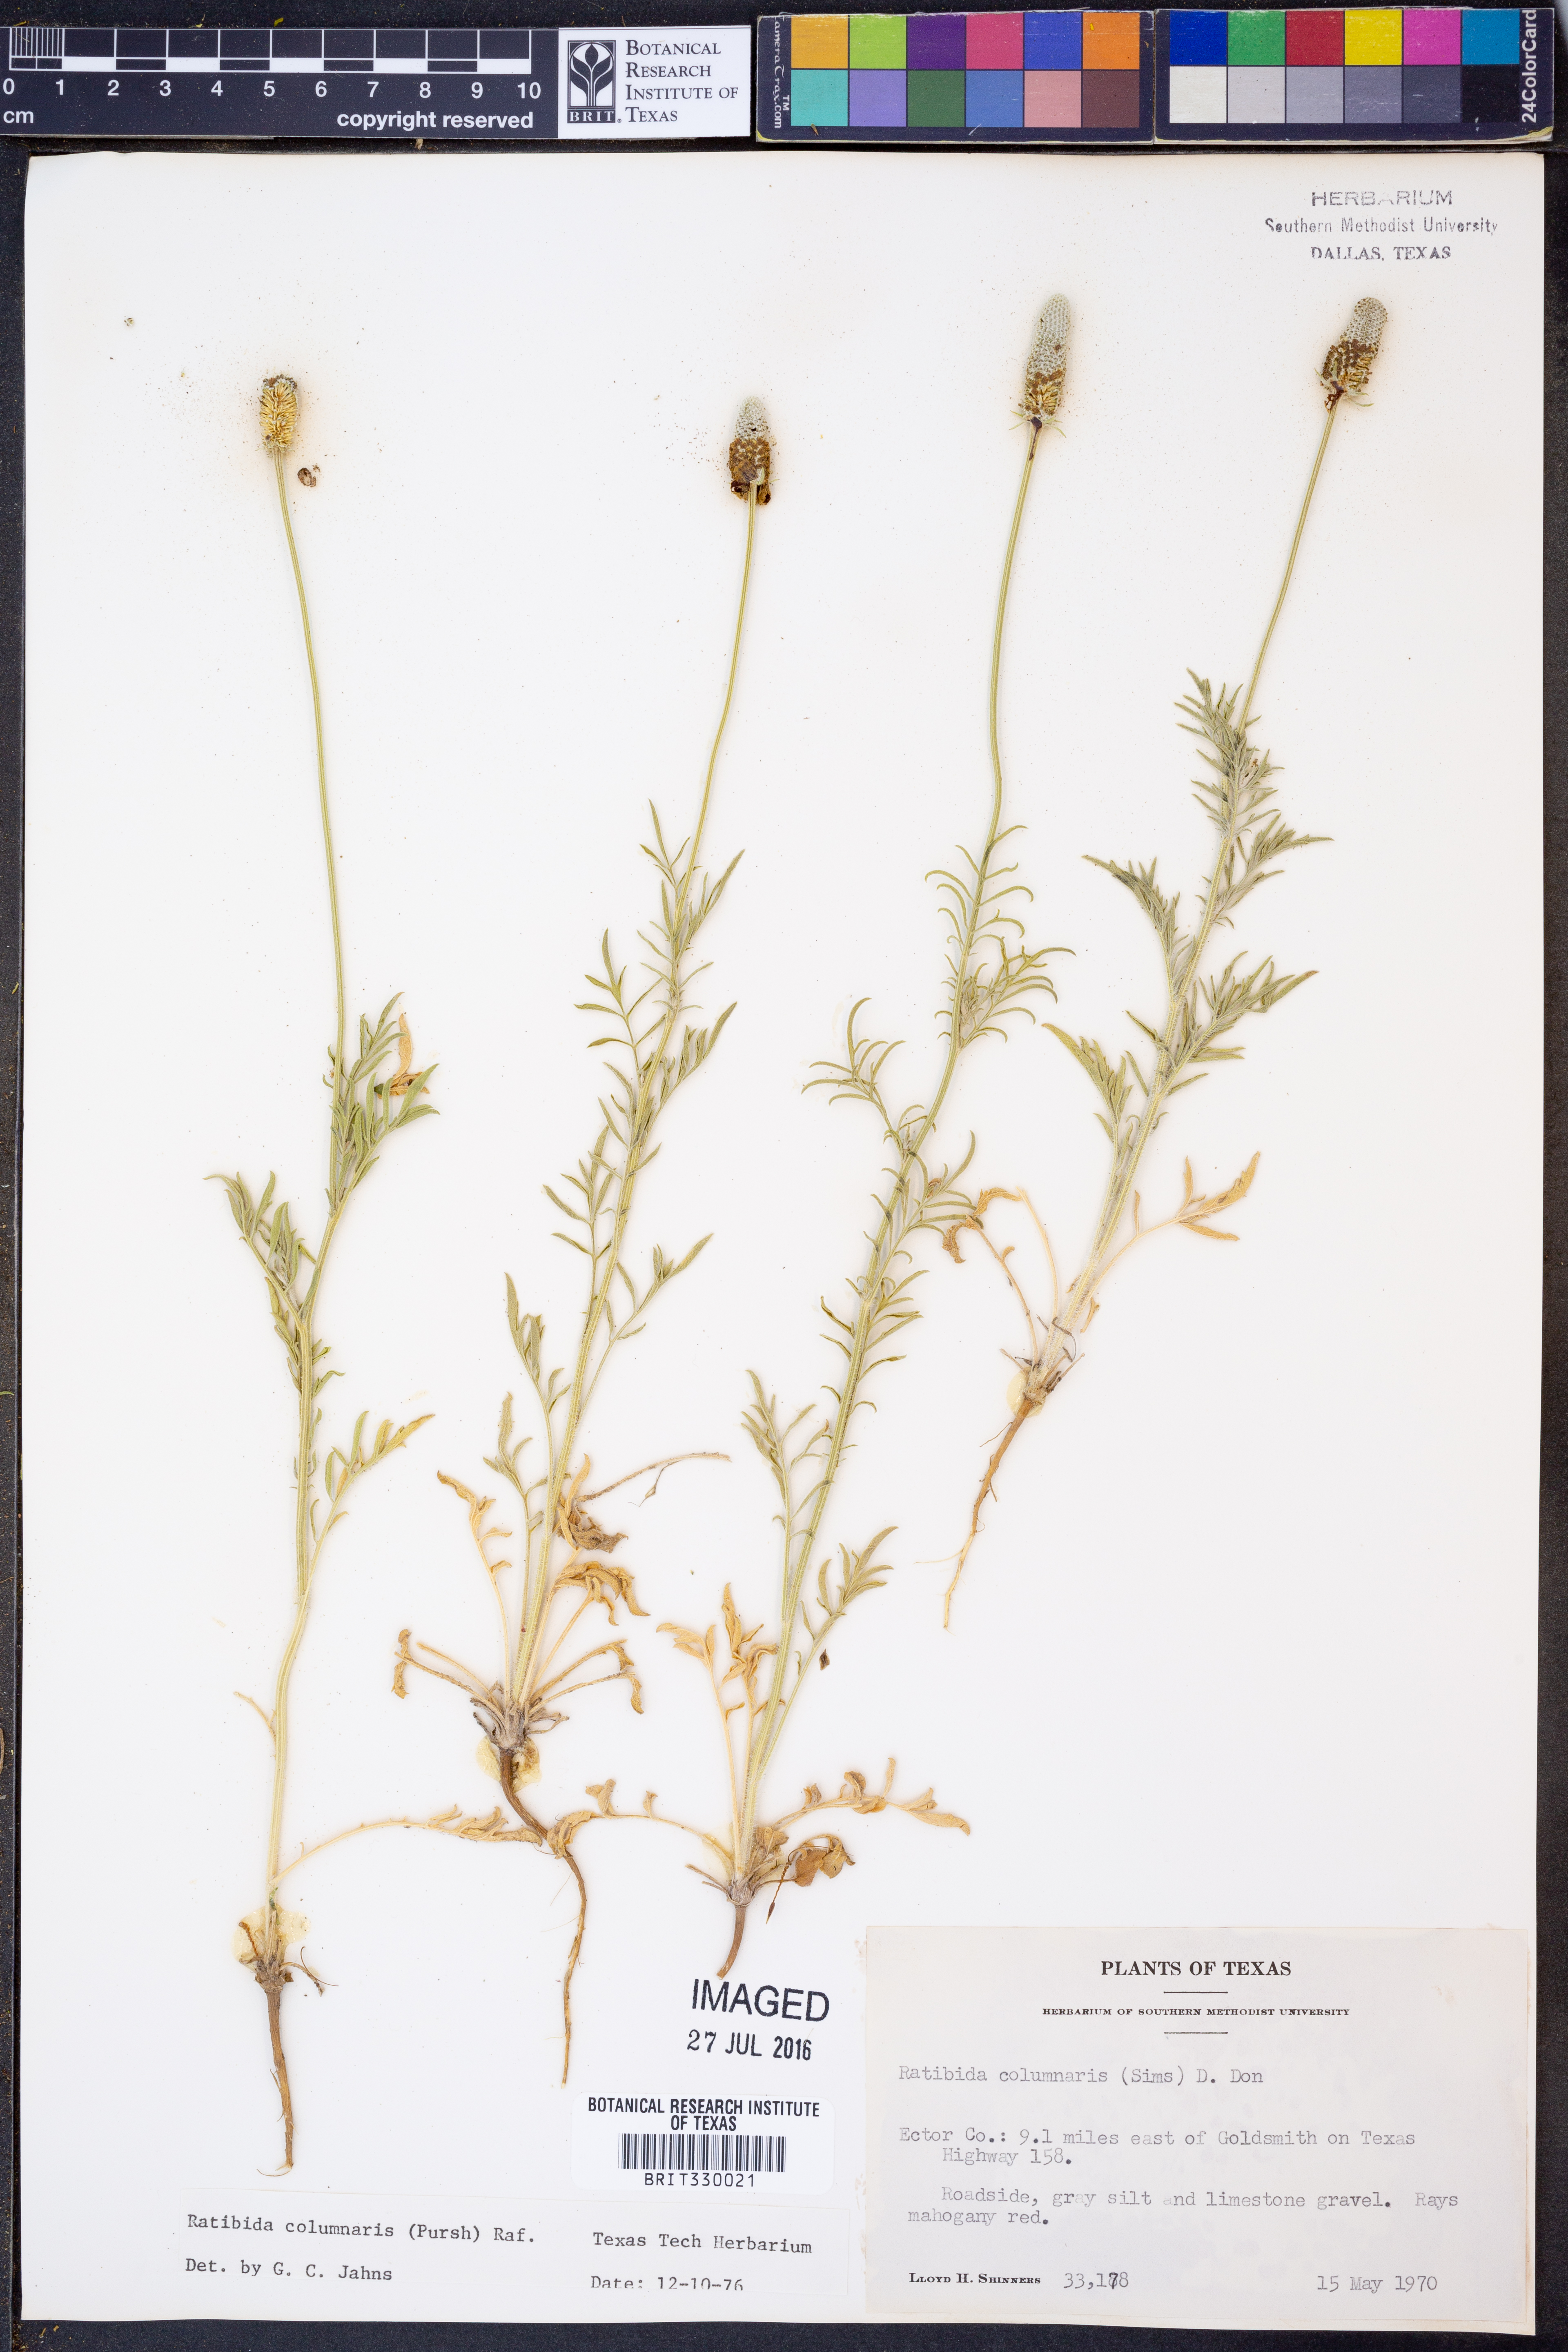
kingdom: Plantae
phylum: Tracheophyta
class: Magnoliopsida
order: Asterales
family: Asteraceae
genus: Ratibida
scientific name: Ratibida columnifera
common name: Prairie coneflower
